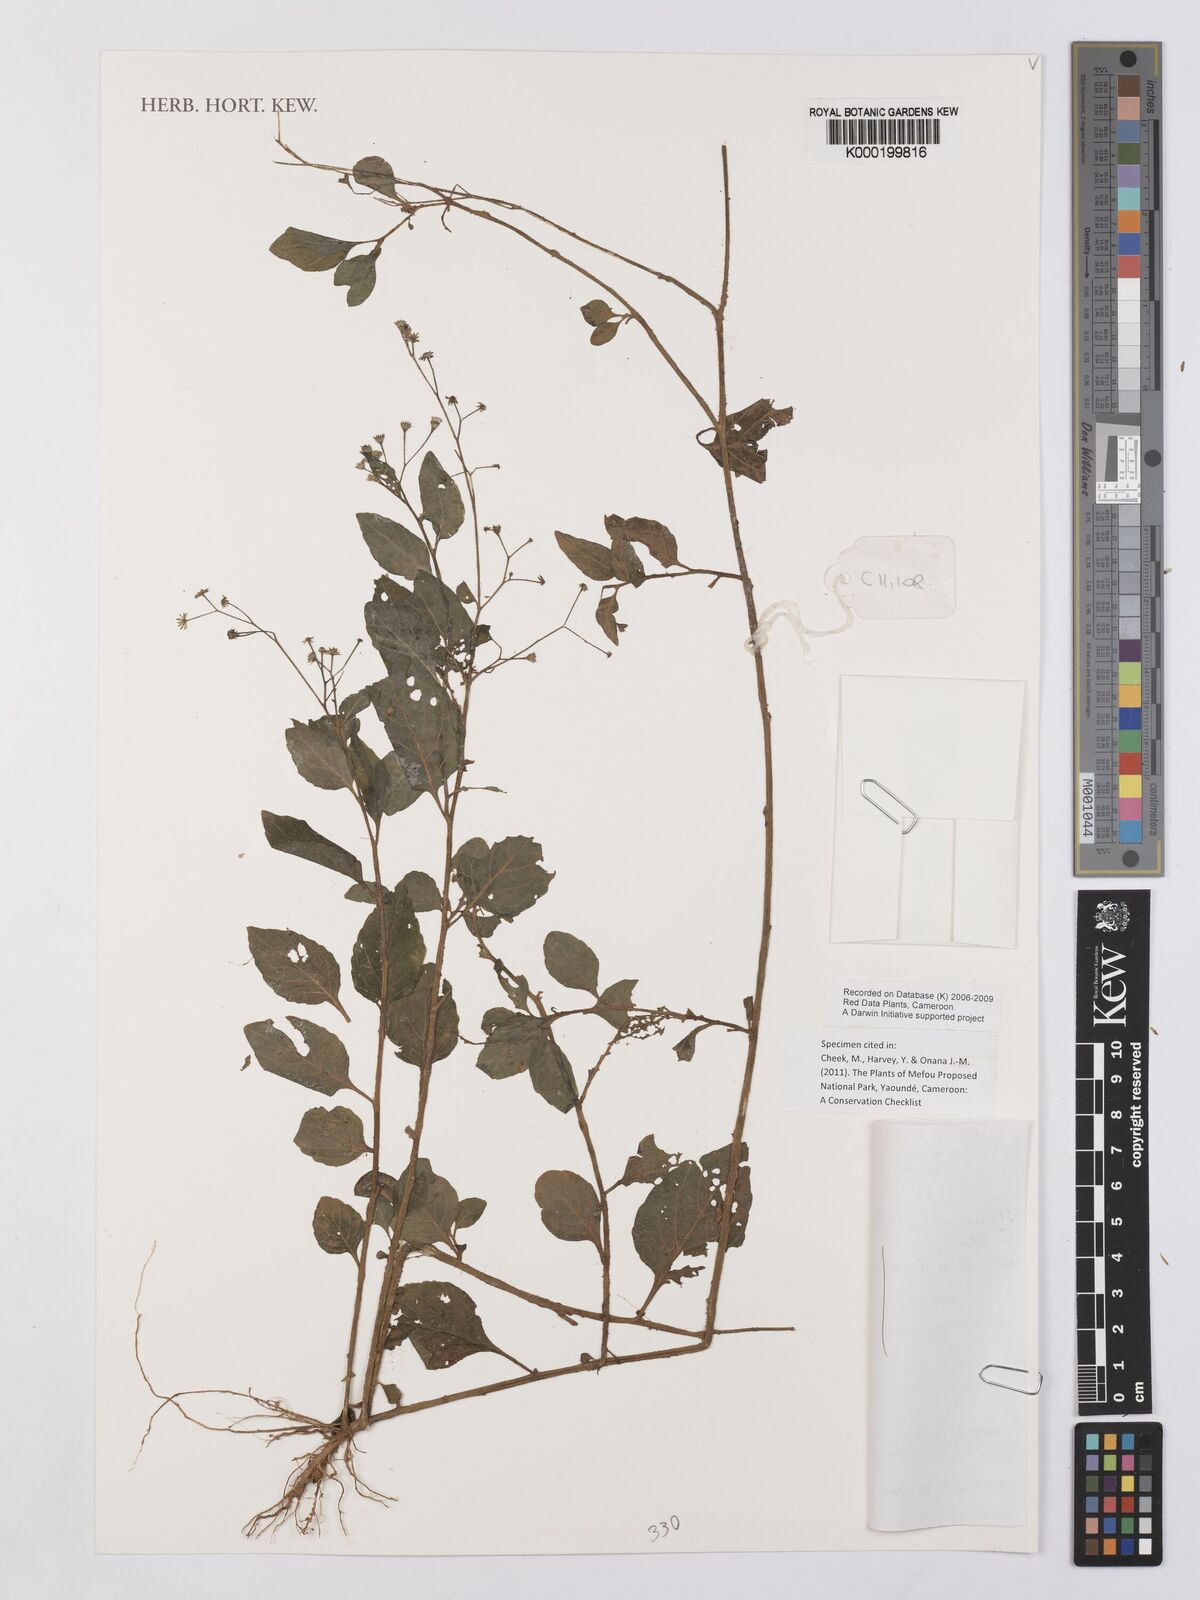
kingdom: Plantae
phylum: Tracheophyta
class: Magnoliopsida
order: Asterales
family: Asteraceae
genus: Cyanthillium
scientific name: Cyanthillium stelluliferum
